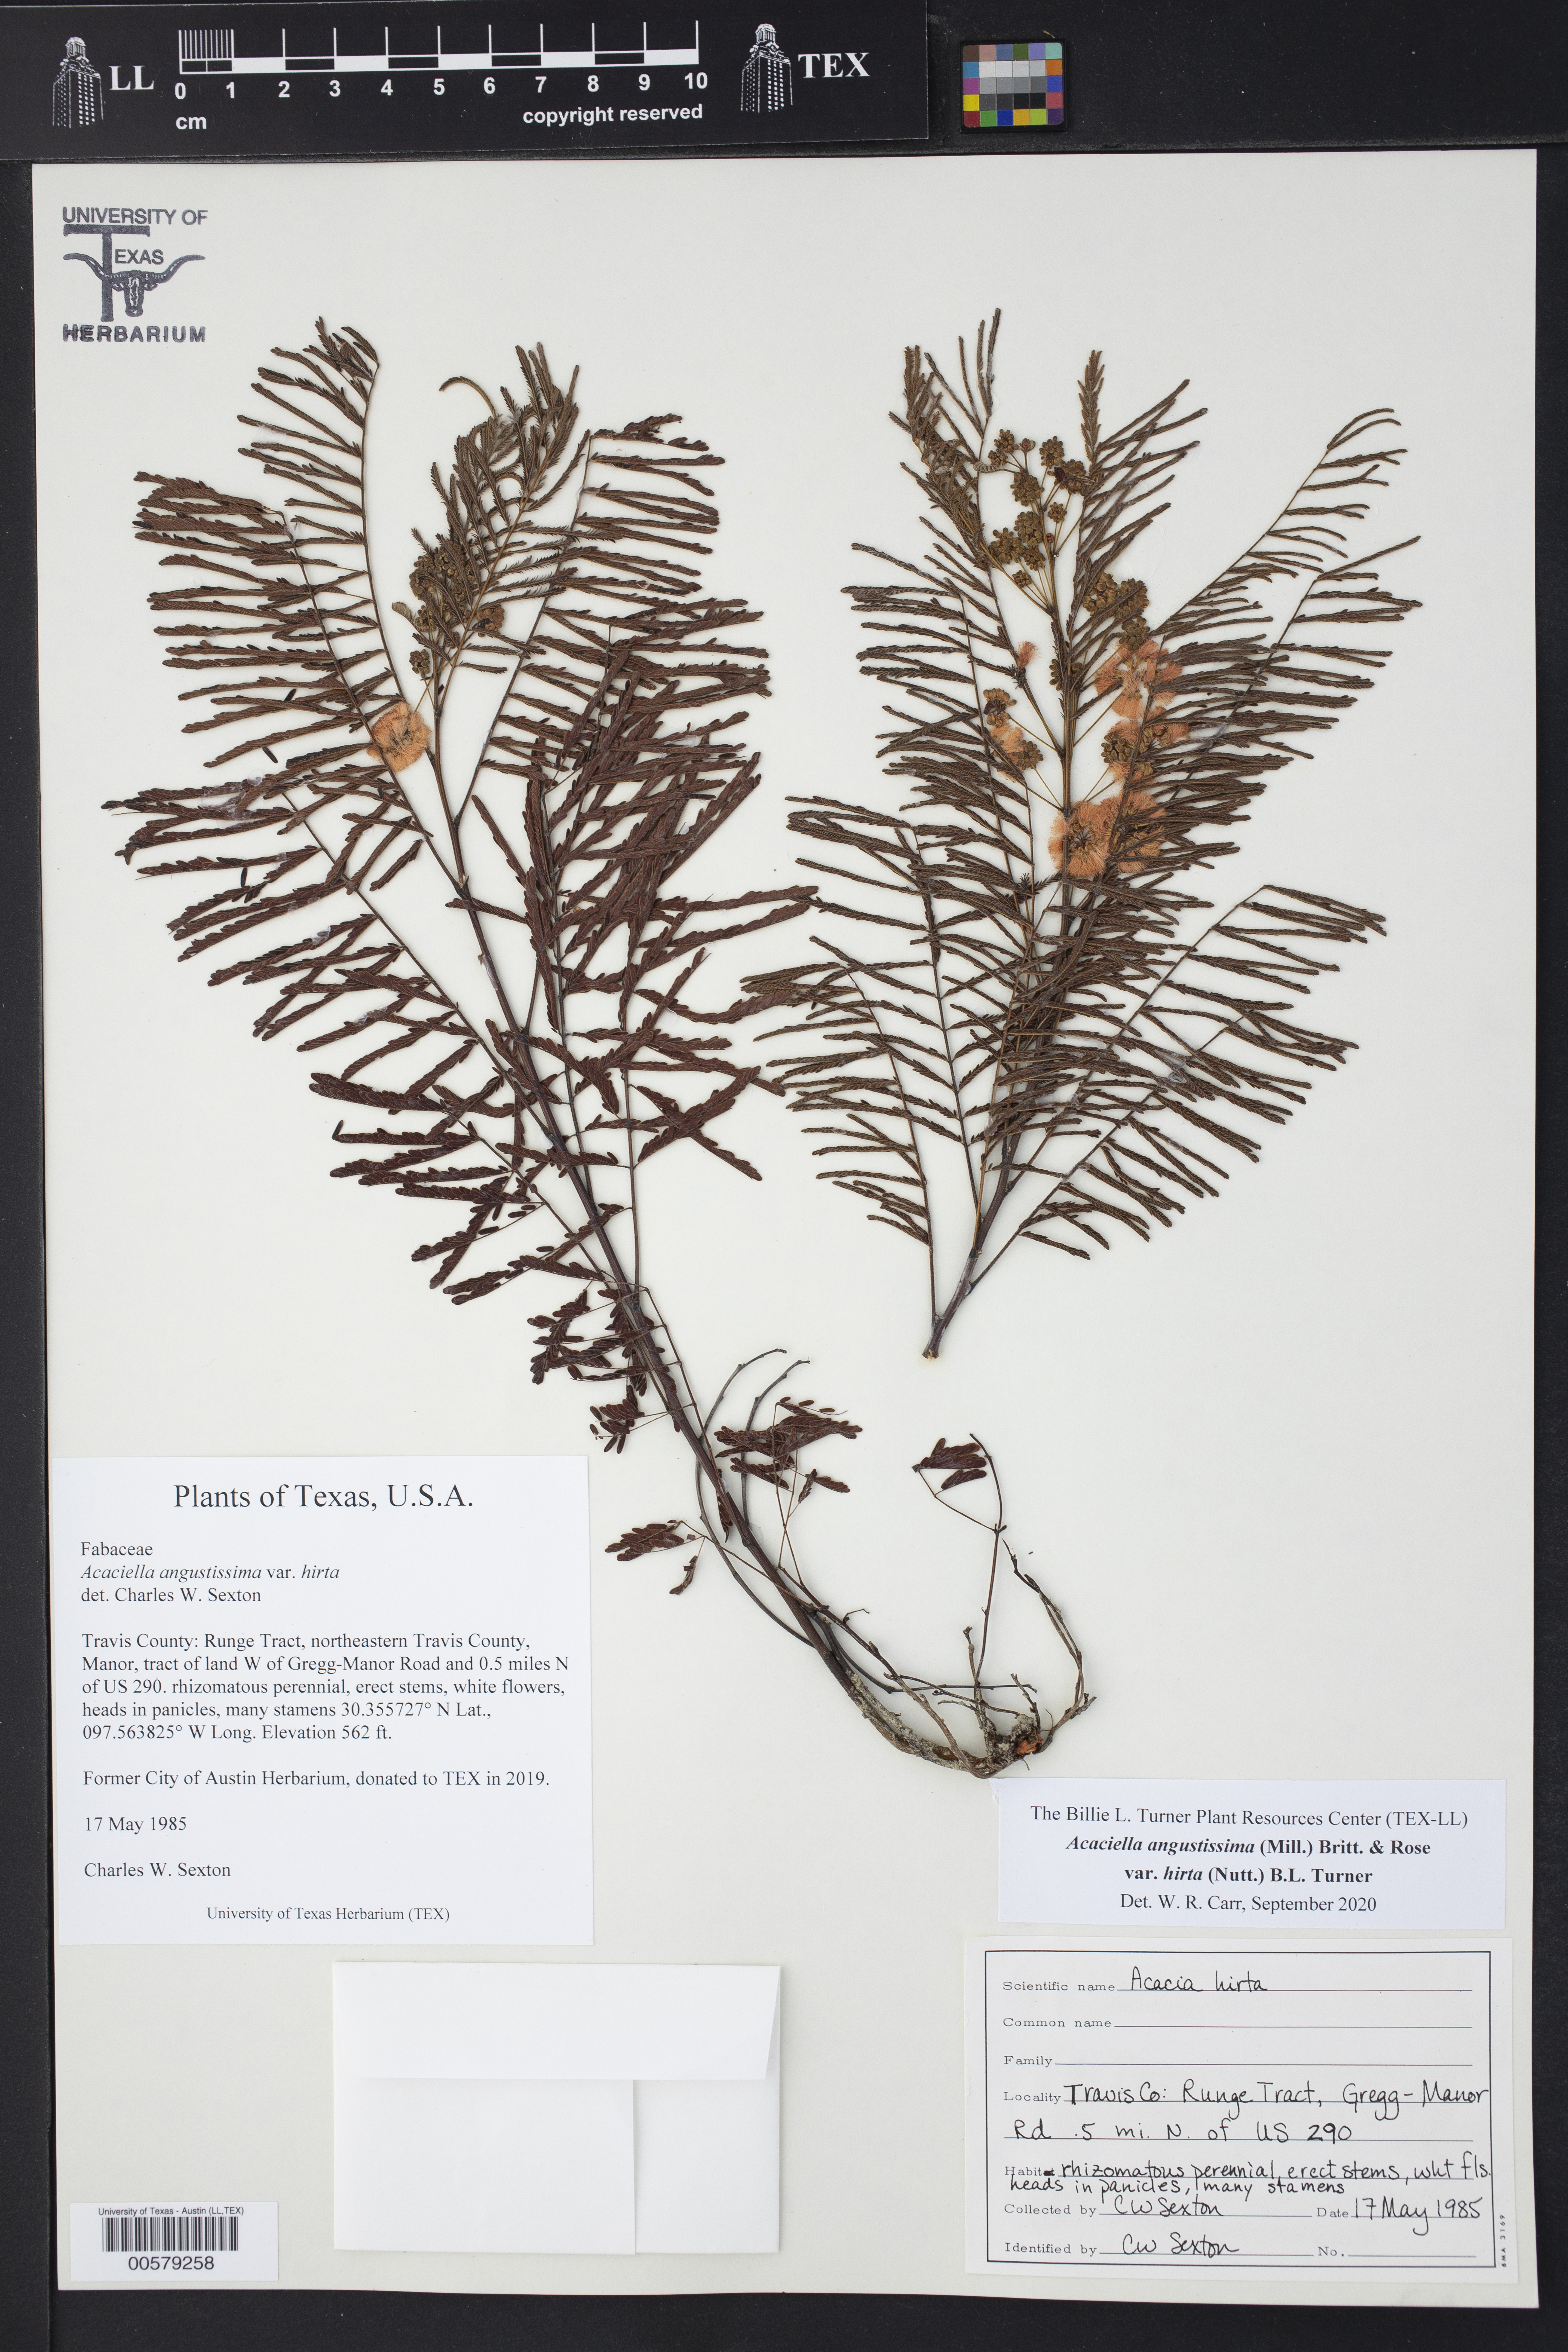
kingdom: Plantae
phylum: Tracheophyta
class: Magnoliopsida
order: Fabales
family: Fabaceae
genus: Acaciella
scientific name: Acaciella angustissima
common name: Prairie acacia
